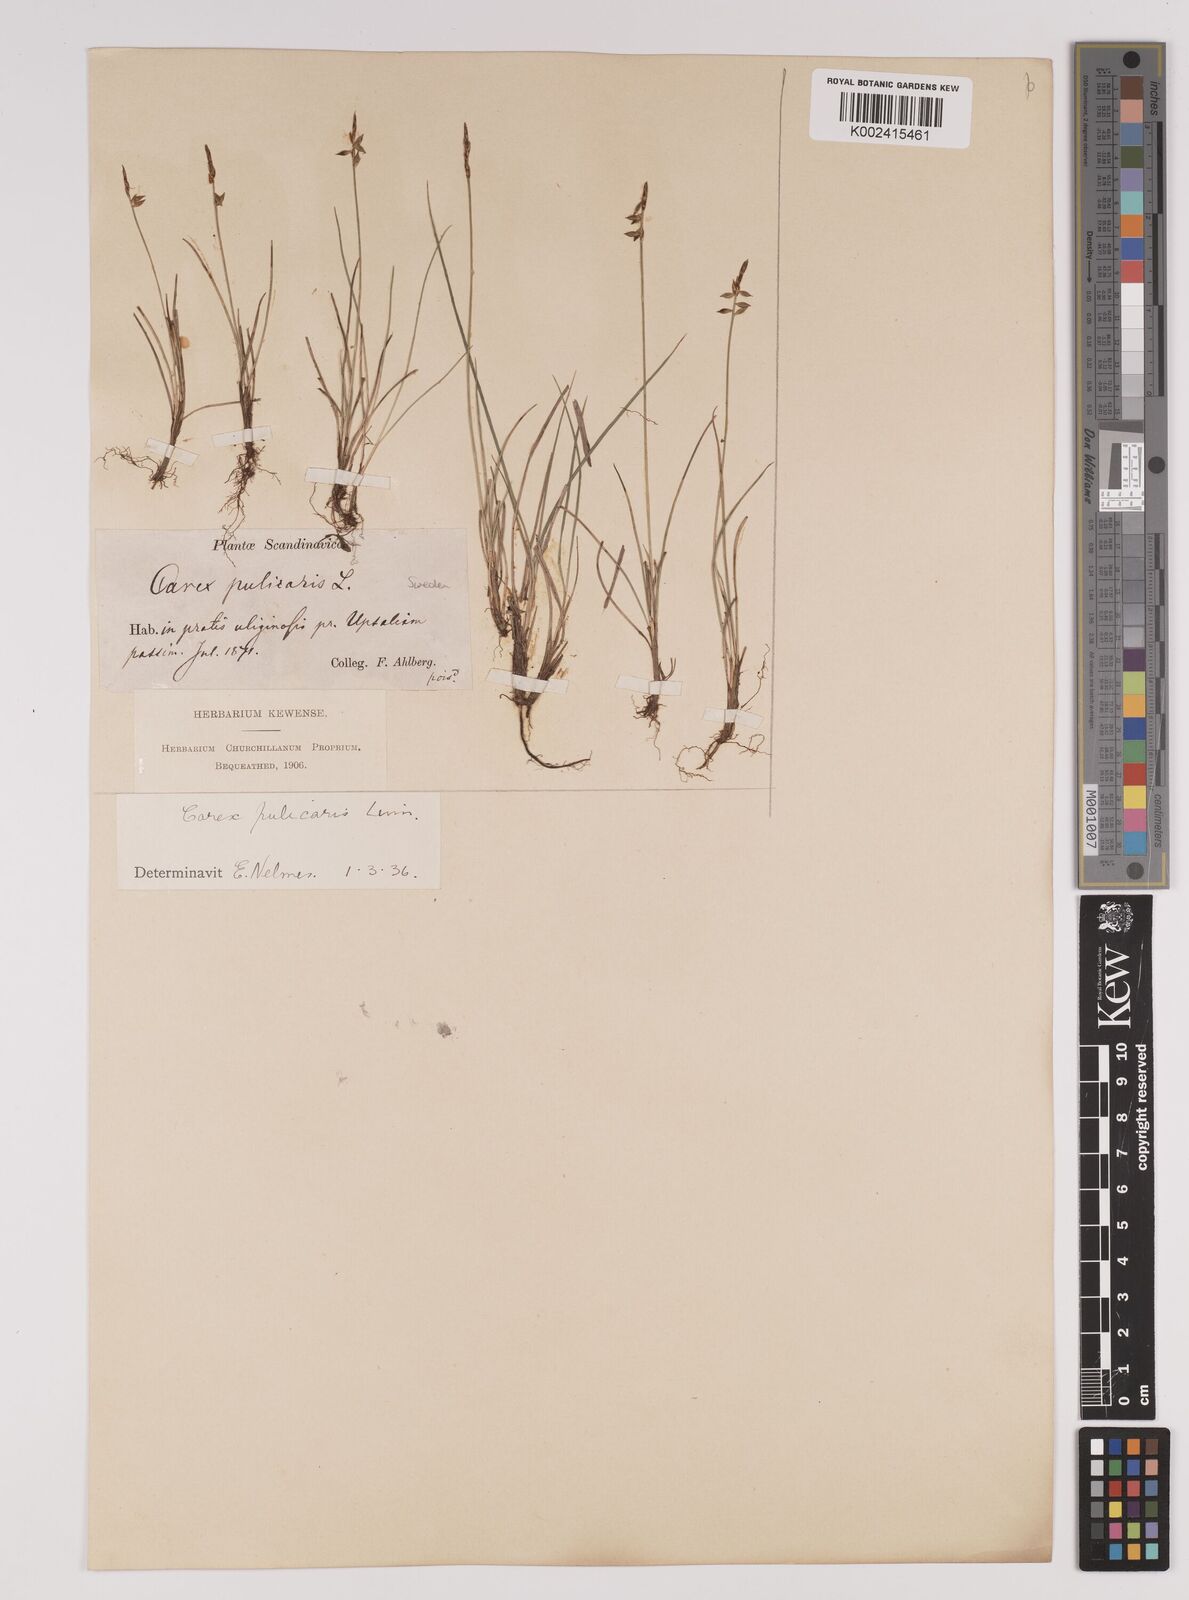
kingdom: Plantae
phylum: Tracheophyta
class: Liliopsida
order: Poales
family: Cyperaceae
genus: Carex
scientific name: Carex pulicaris
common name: Flea sedge
